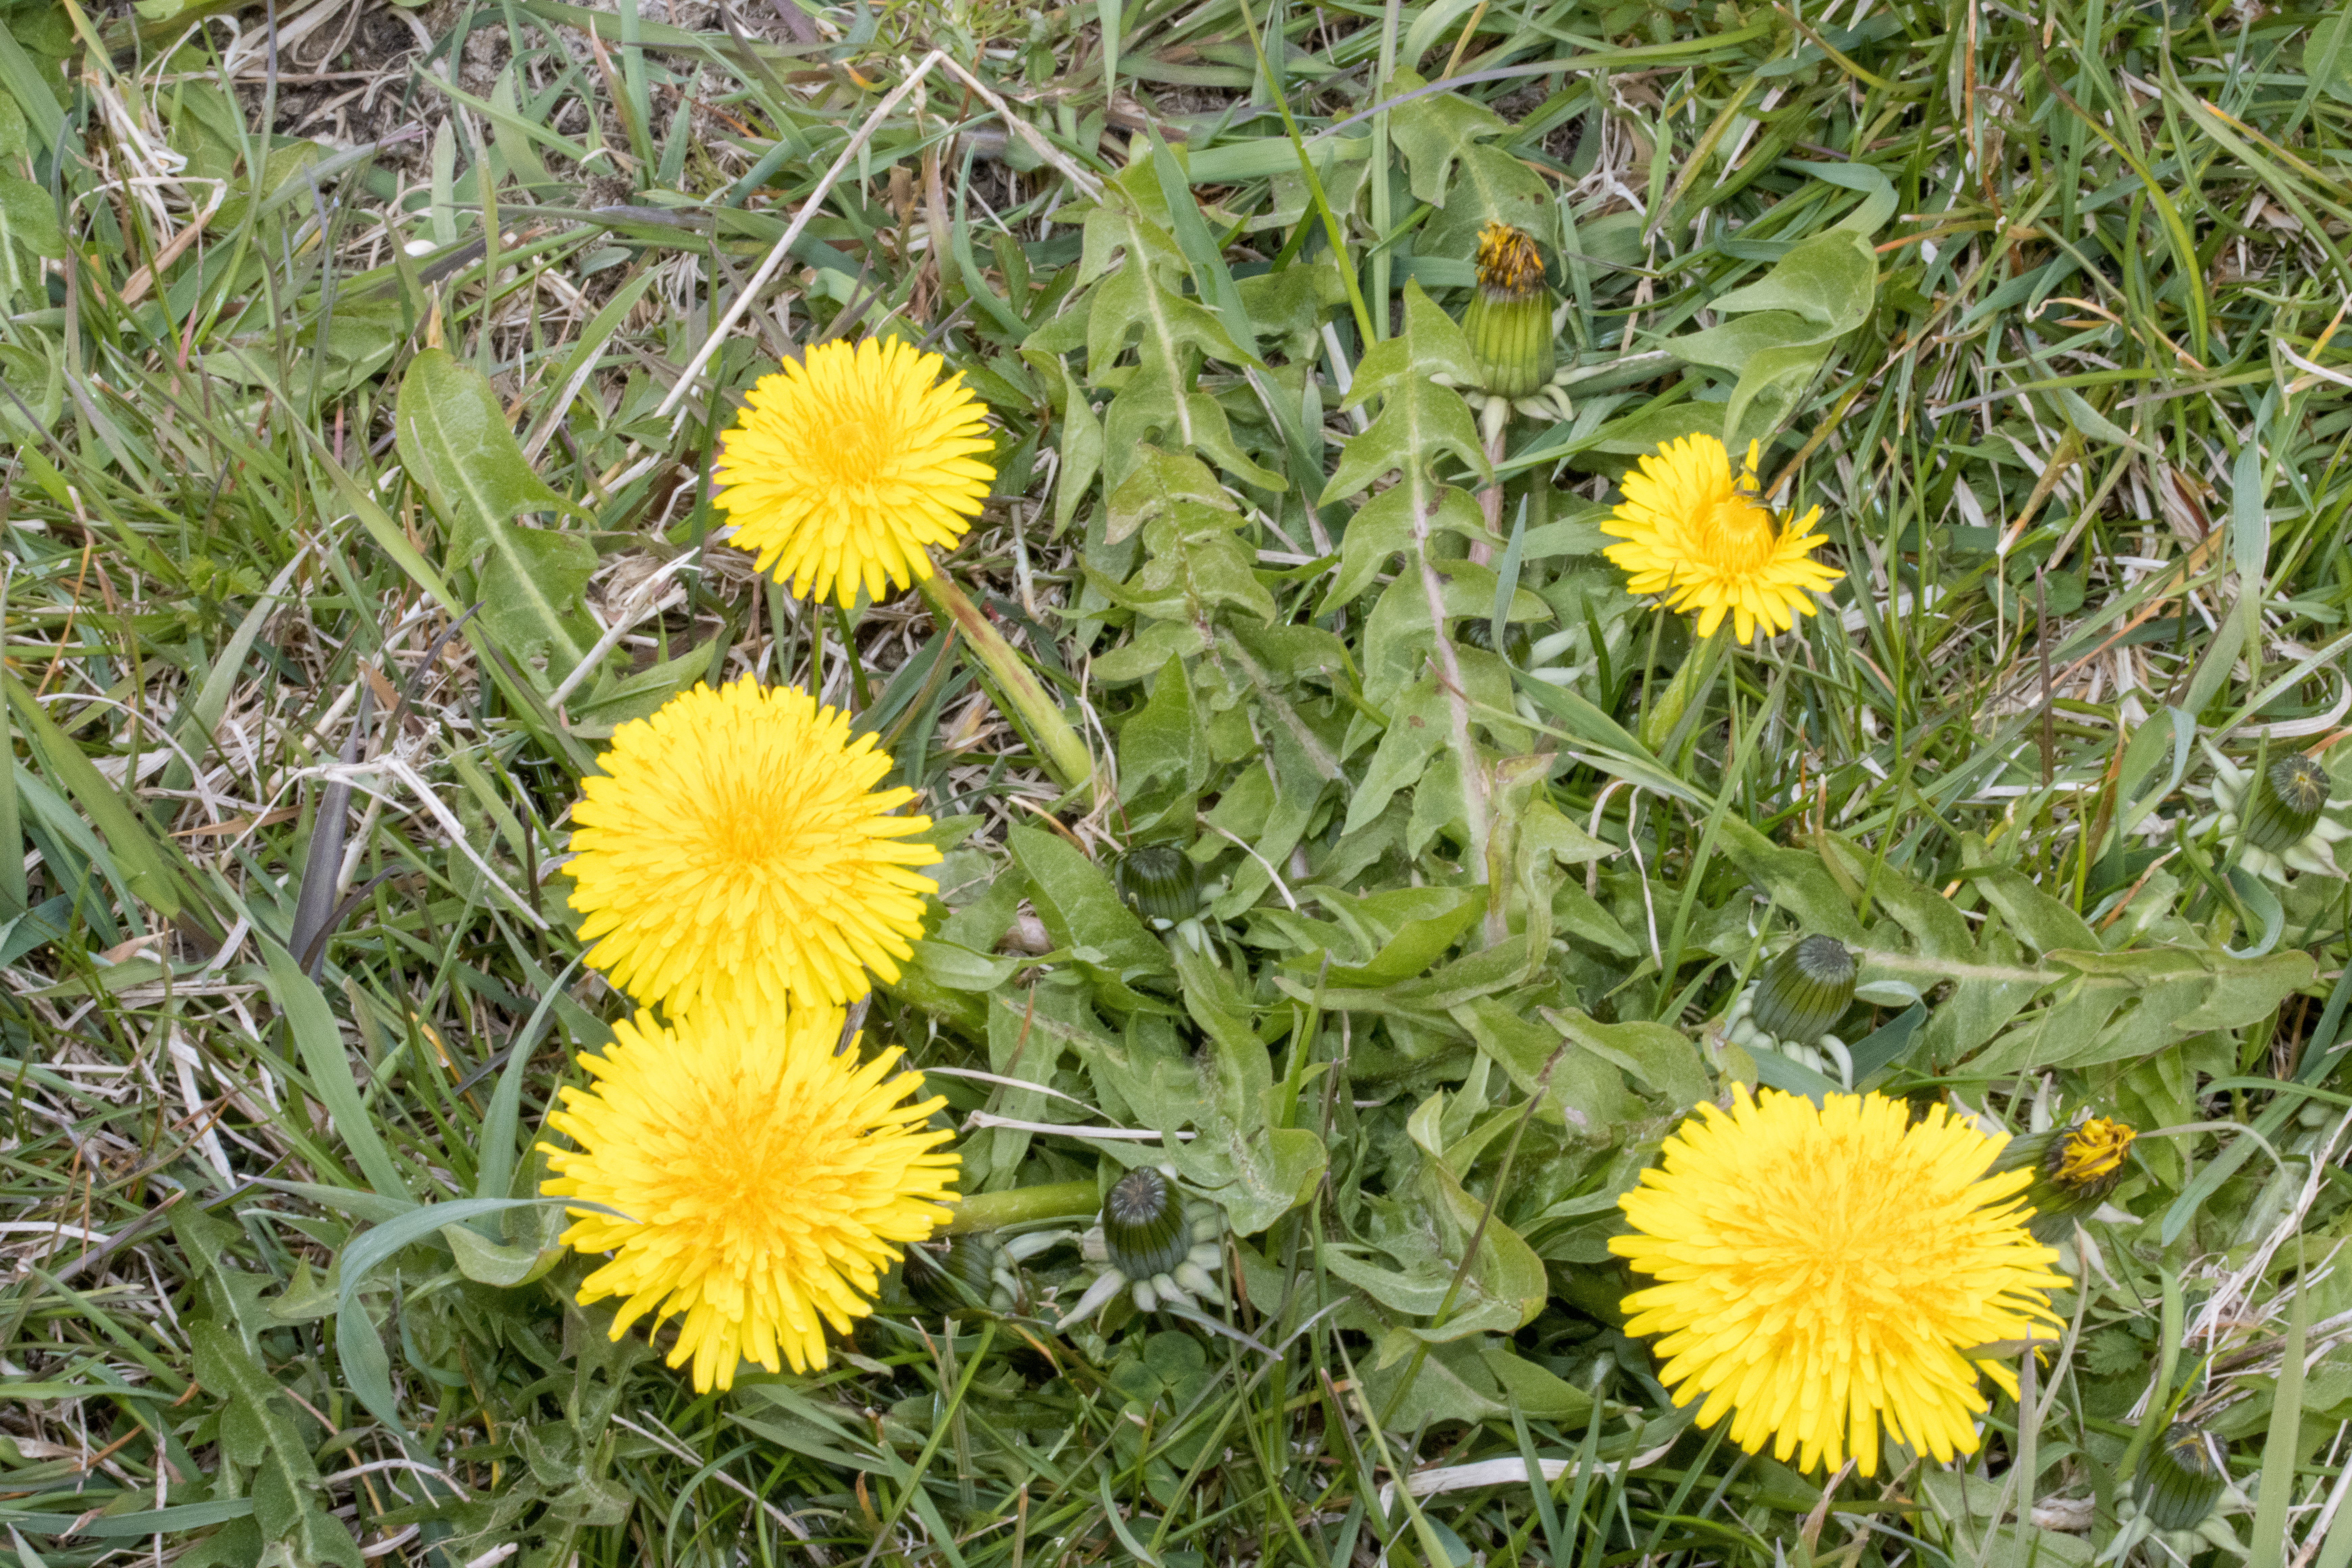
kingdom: Plantae
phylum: Tracheophyta
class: Magnoliopsida
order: Asterales
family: Asteraceae
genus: Taraxacum
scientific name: Taraxacum inarmatum
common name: Sorttandet vejmælkebøtte
